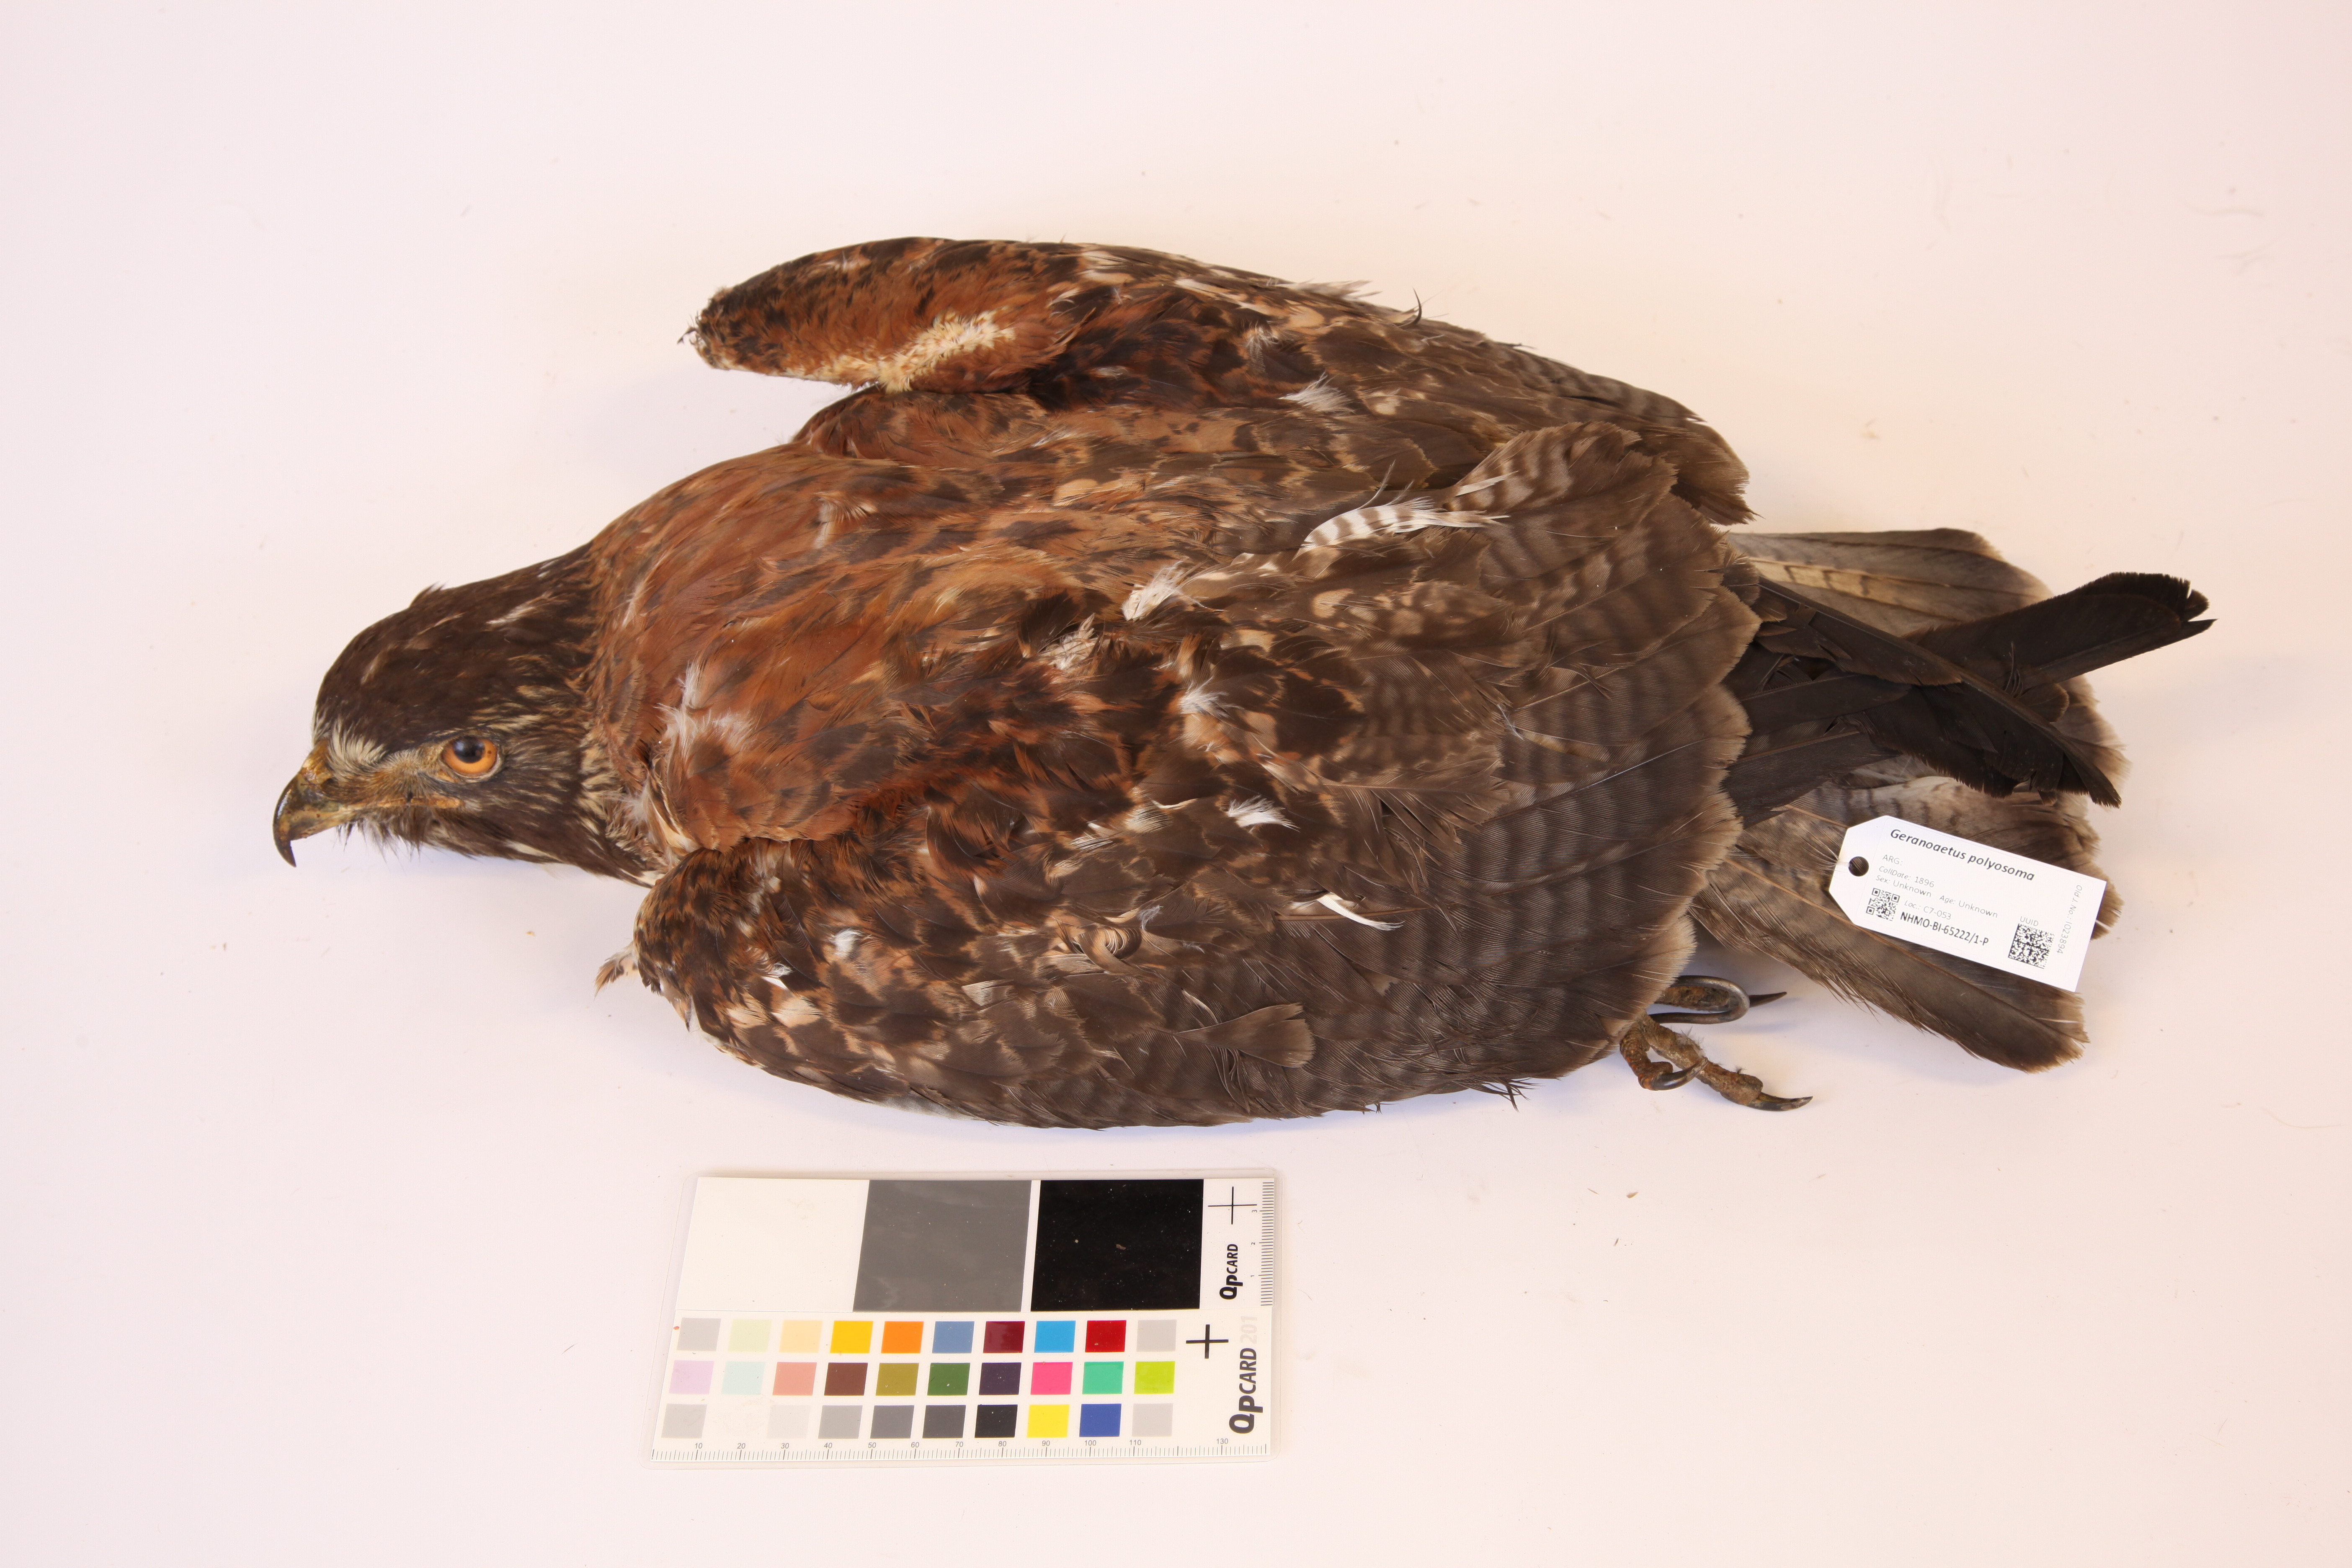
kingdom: Animalia
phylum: Chordata
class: Aves
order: Accipitriformes
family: Accipitridae
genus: Buteo
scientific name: Buteo polyosoma
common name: Variable hawk
